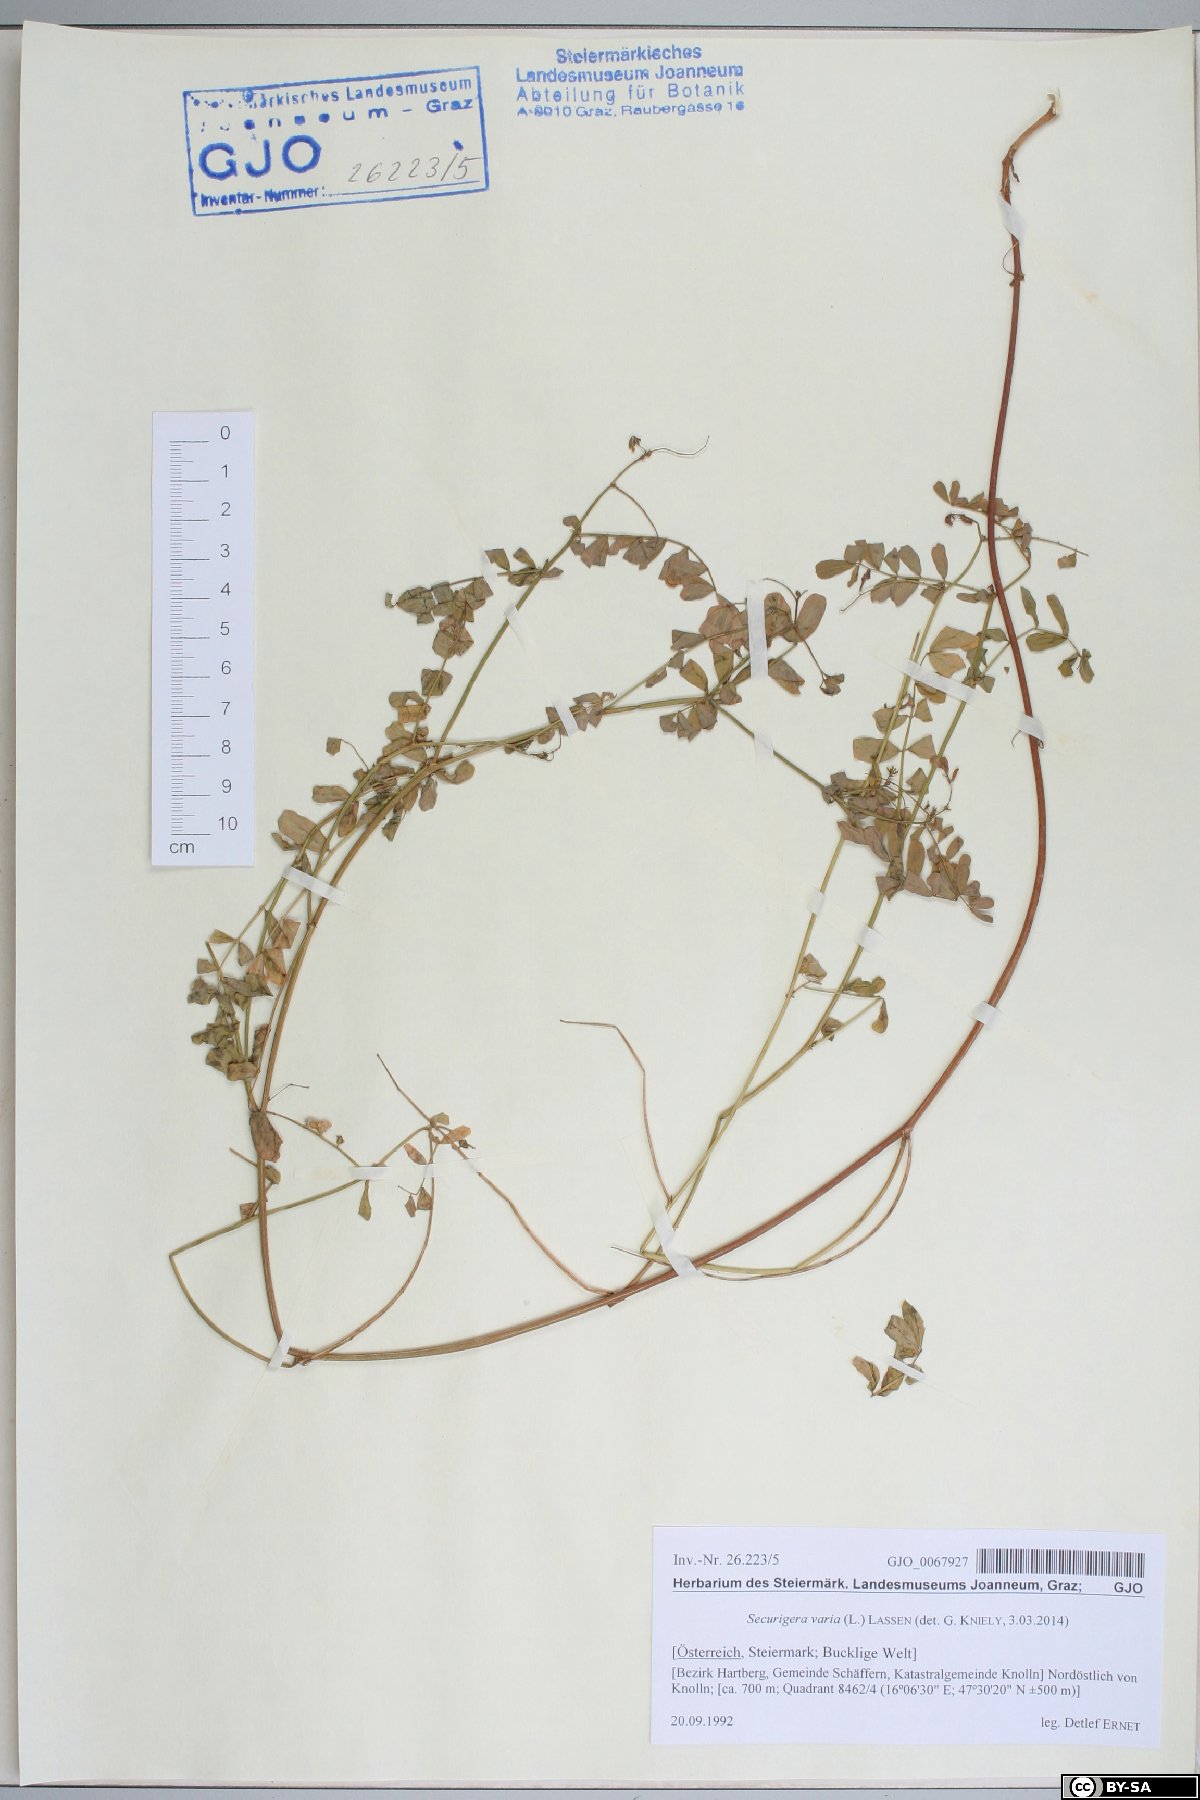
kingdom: Plantae
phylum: Tracheophyta
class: Magnoliopsida
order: Fabales
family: Fabaceae
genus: Coronilla
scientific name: Coronilla varia
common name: Crownvetch
